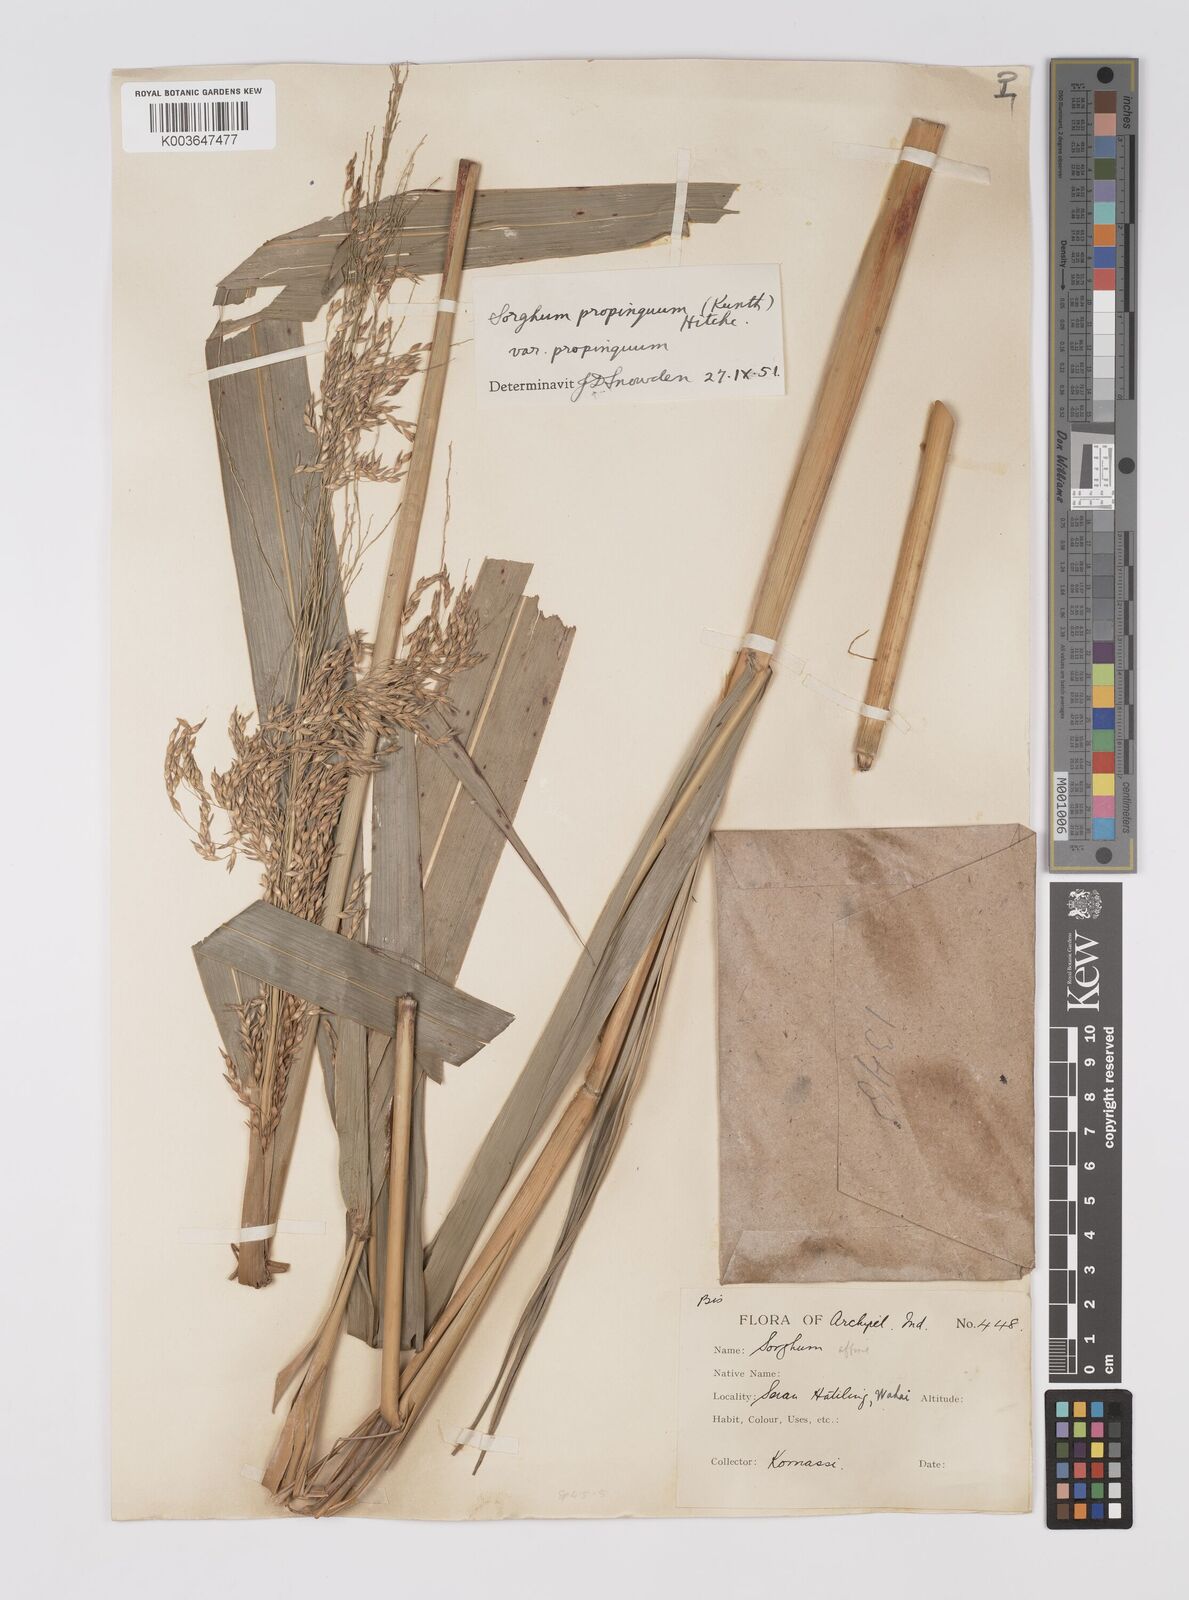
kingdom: Plantae
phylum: Tracheophyta
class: Liliopsida
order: Poales
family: Poaceae
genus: Sorghum
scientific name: Sorghum propinquum
